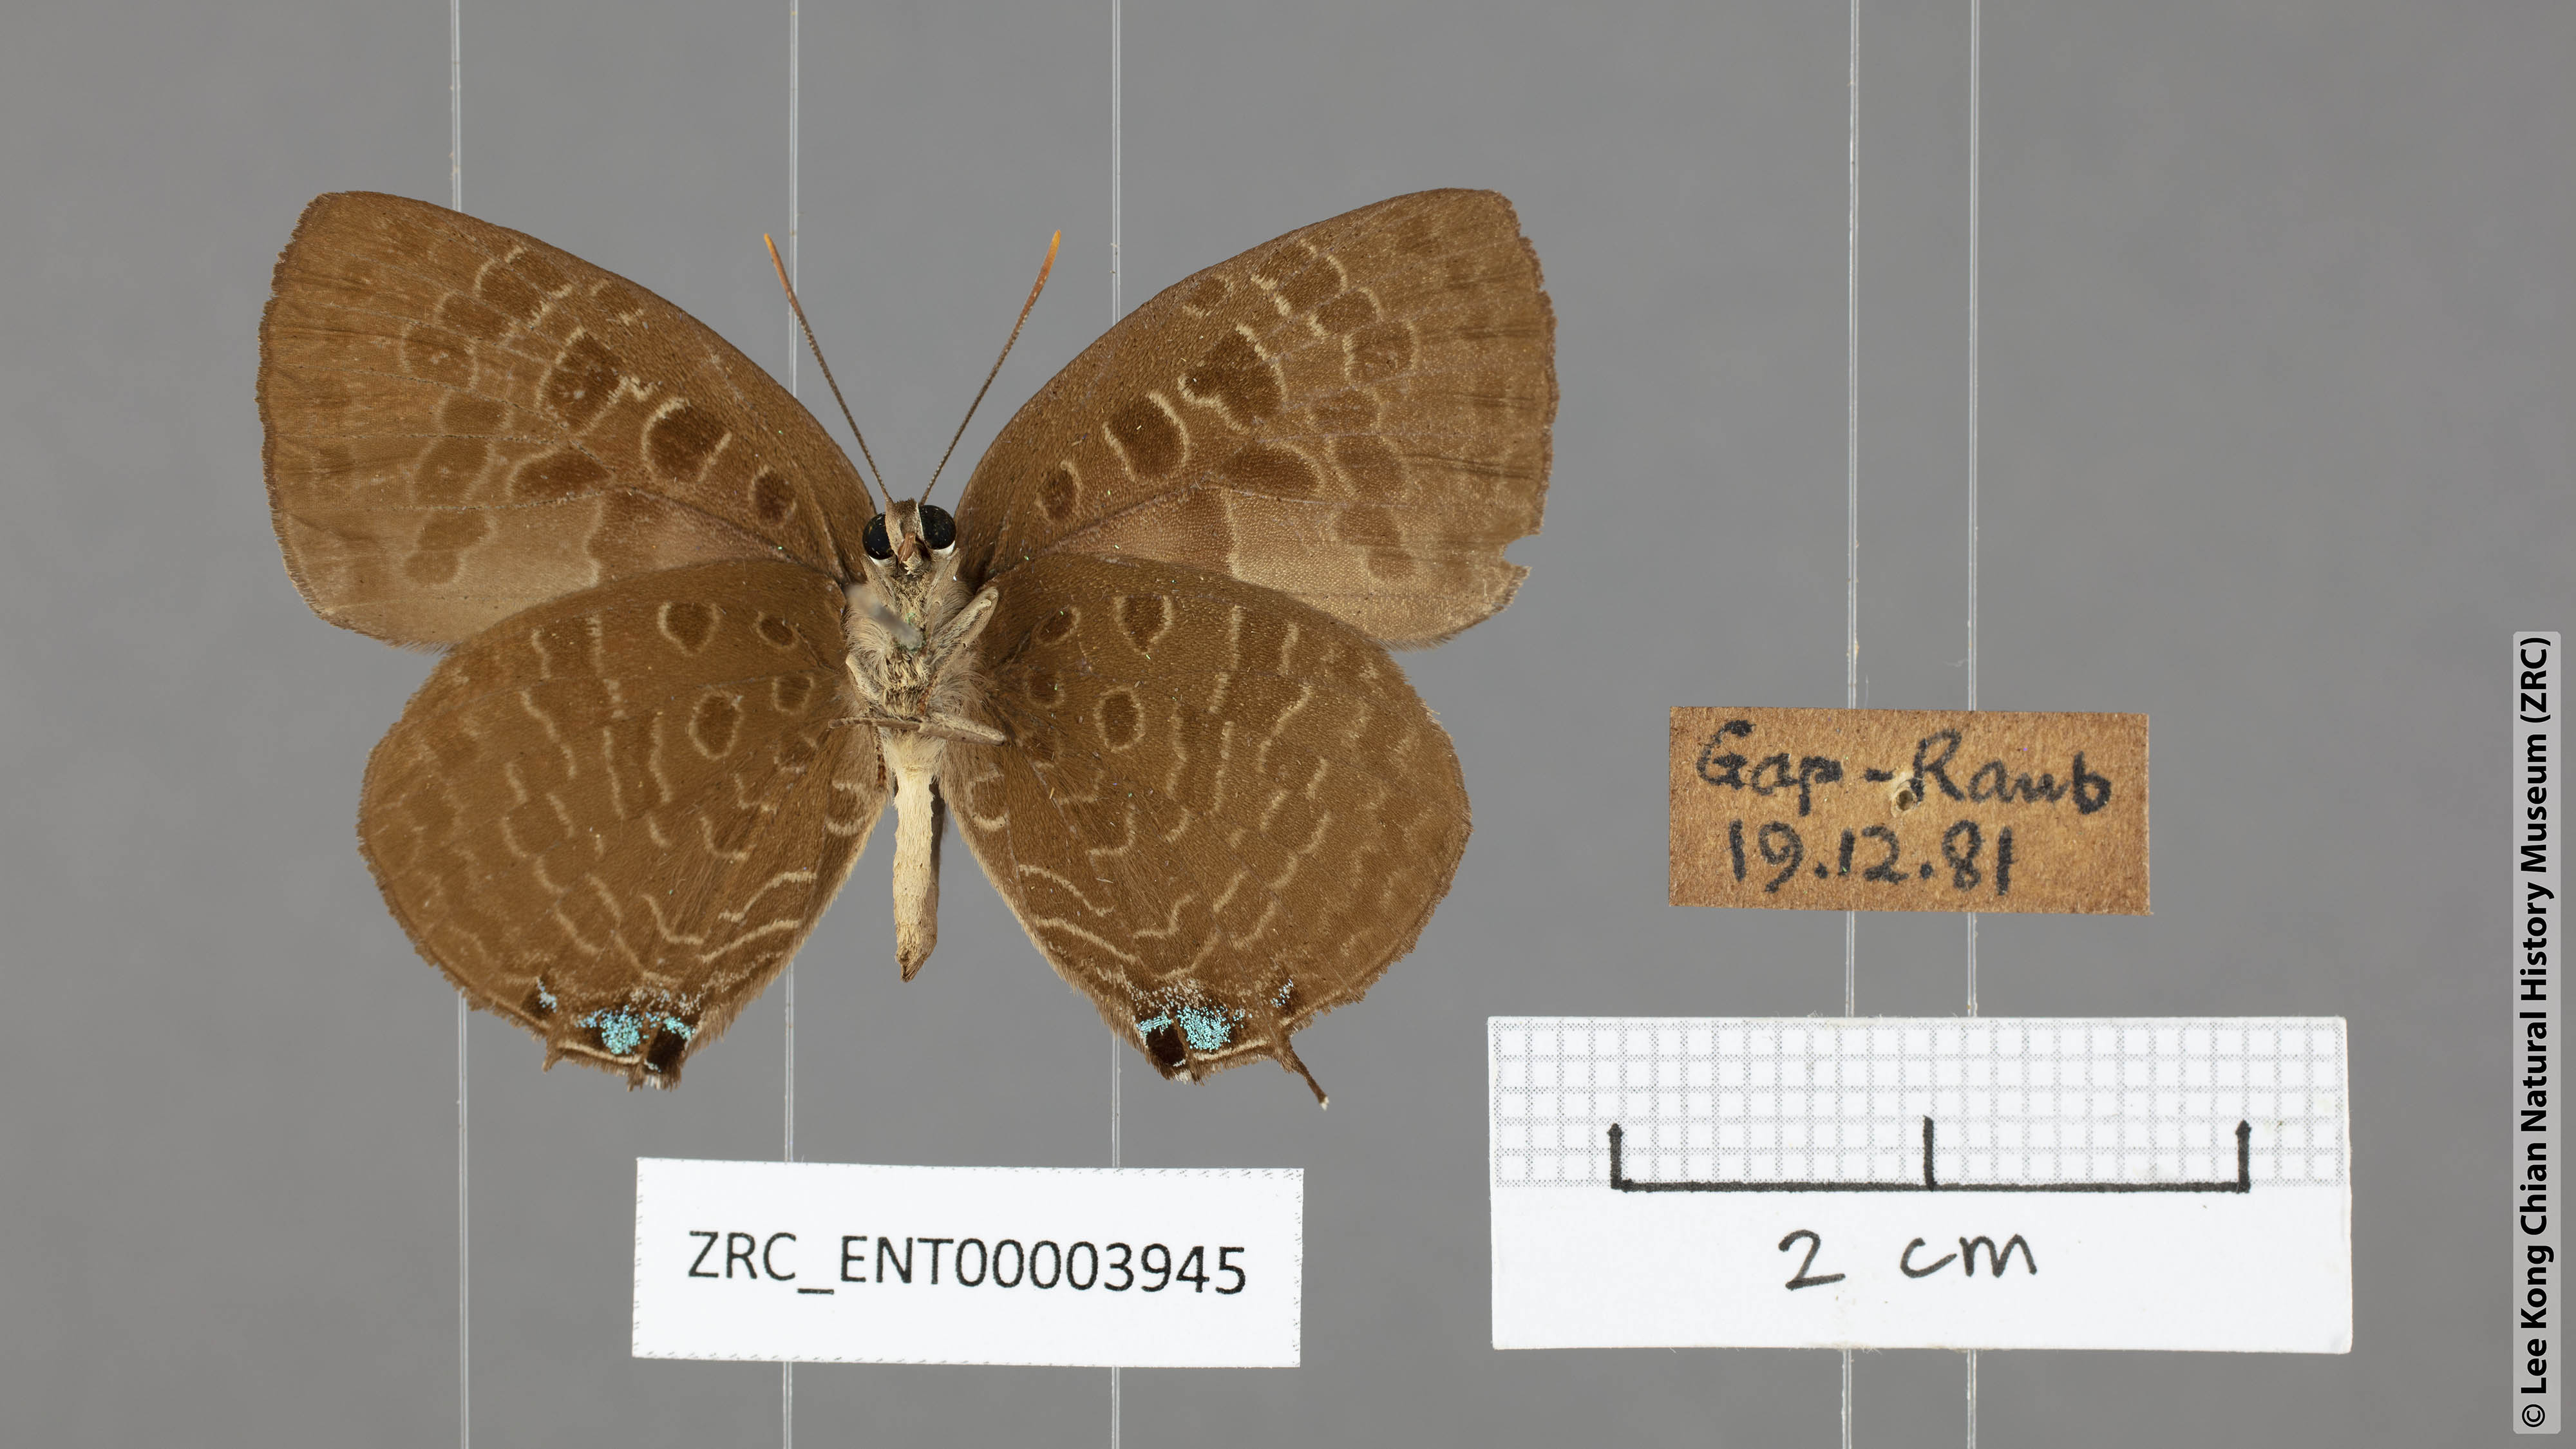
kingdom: Animalia
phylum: Arthropoda
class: Insecta
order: Lepidoptera
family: Lycaenidae
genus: Arhopala
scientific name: Arhopala horsfieldi
